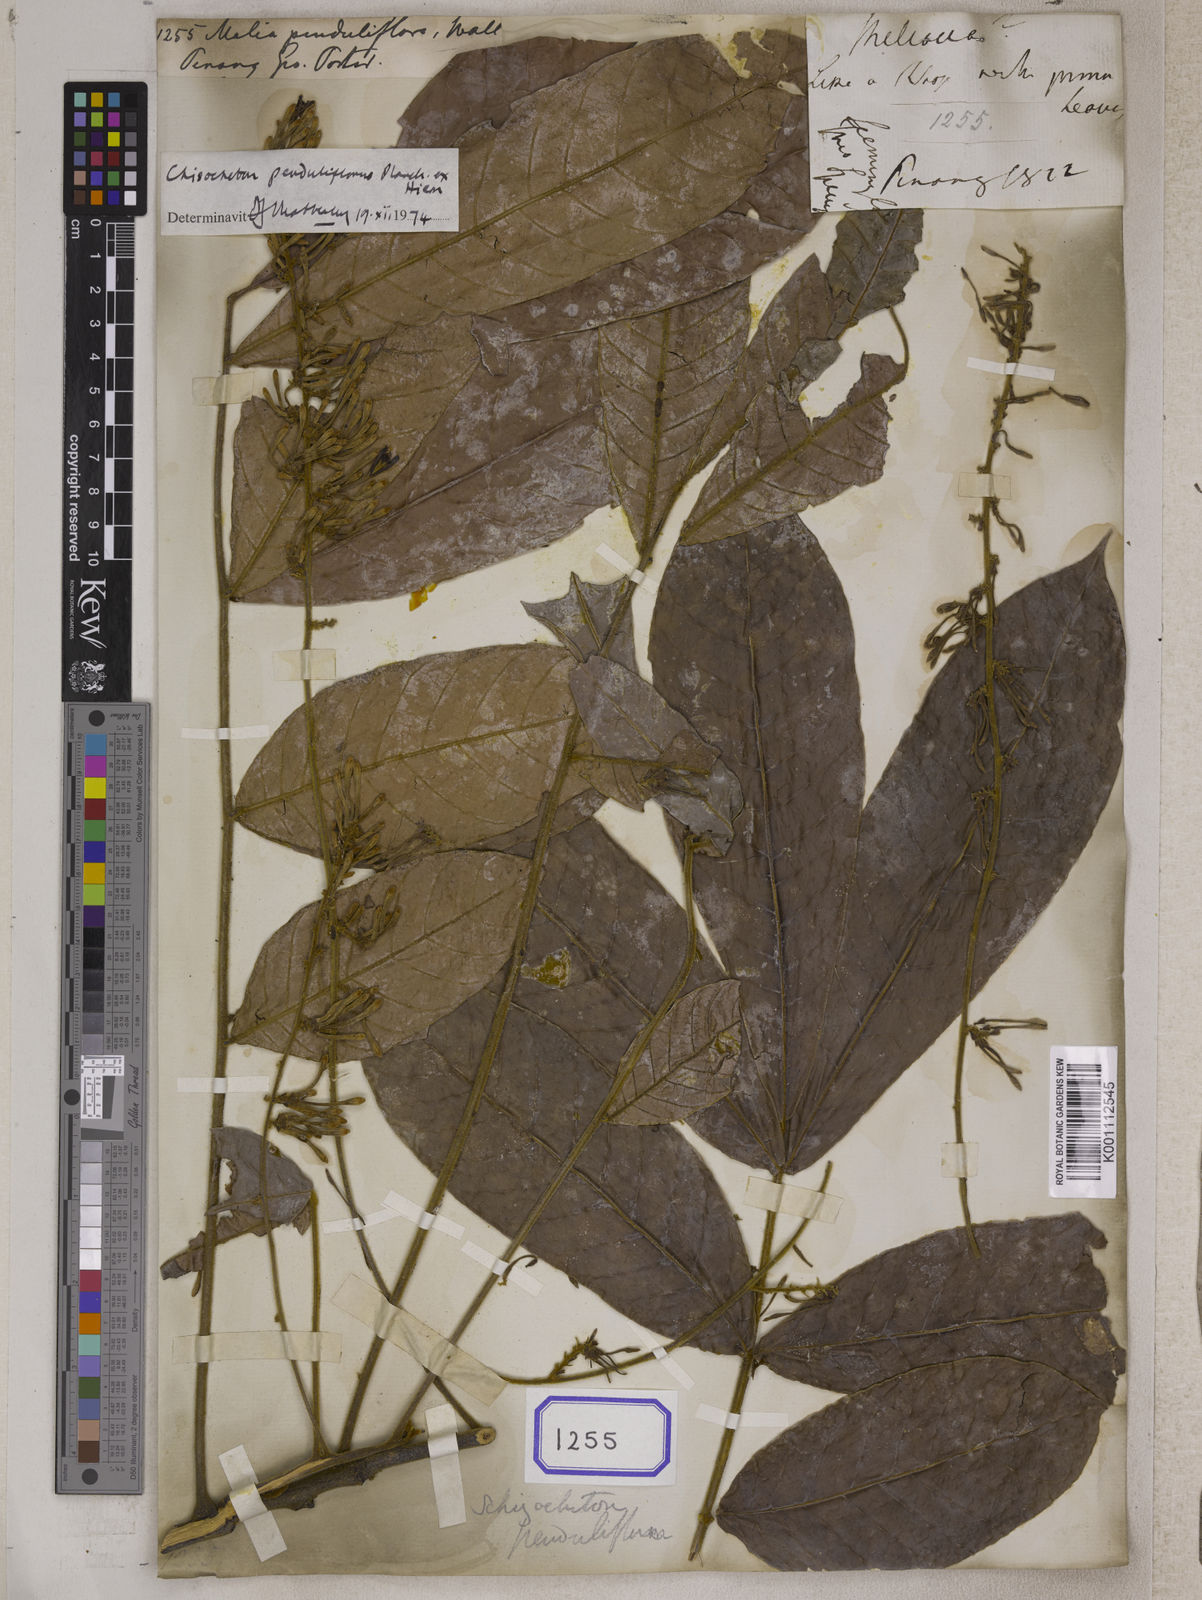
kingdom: Plantae
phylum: Tracheophyta
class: Magnoliopsida
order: Sapindales
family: Meliaceae
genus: Chisocheton
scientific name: Chisocheton penduliflorus
